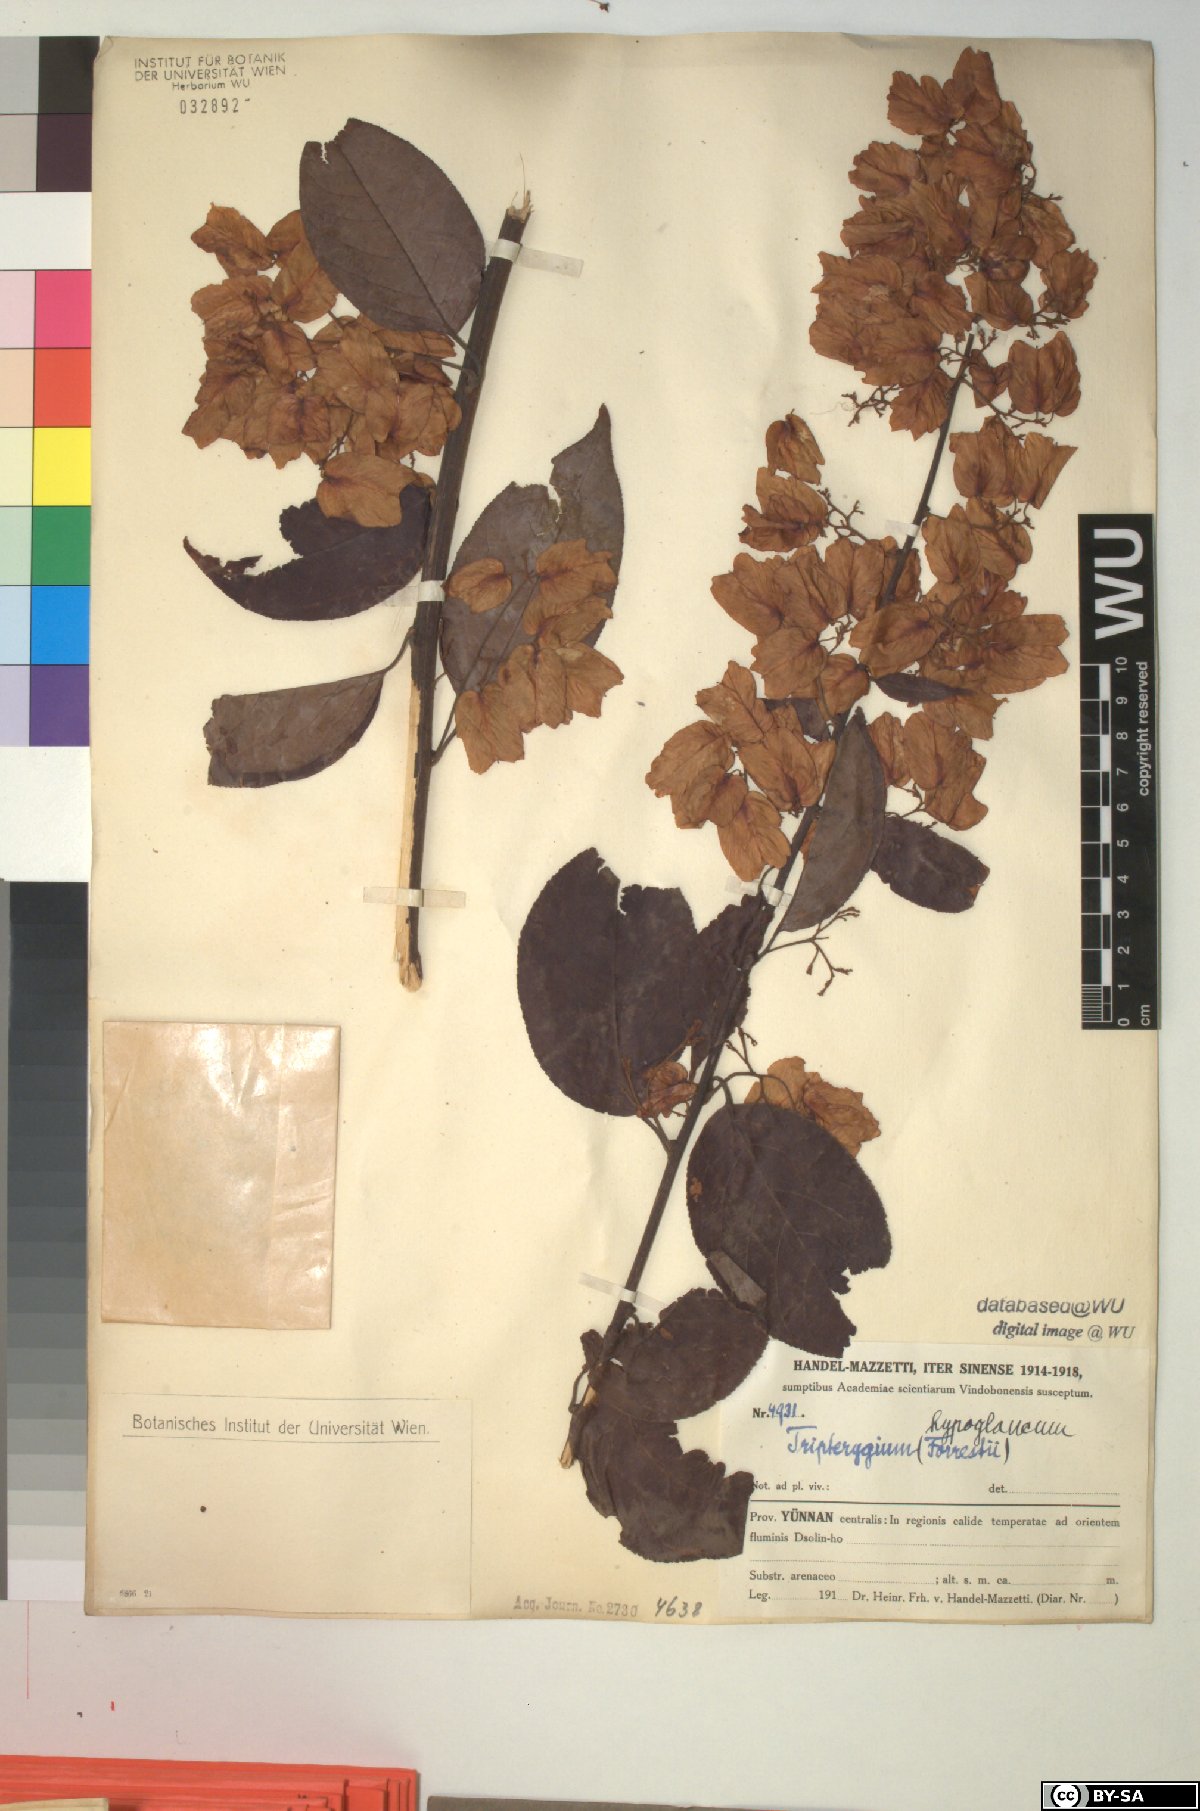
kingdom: Plantae
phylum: Tracheophyta
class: Magnoliopsida
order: Celastrales
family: Celastraceae
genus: Tripterygium
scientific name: Tripterygium wilfordii
